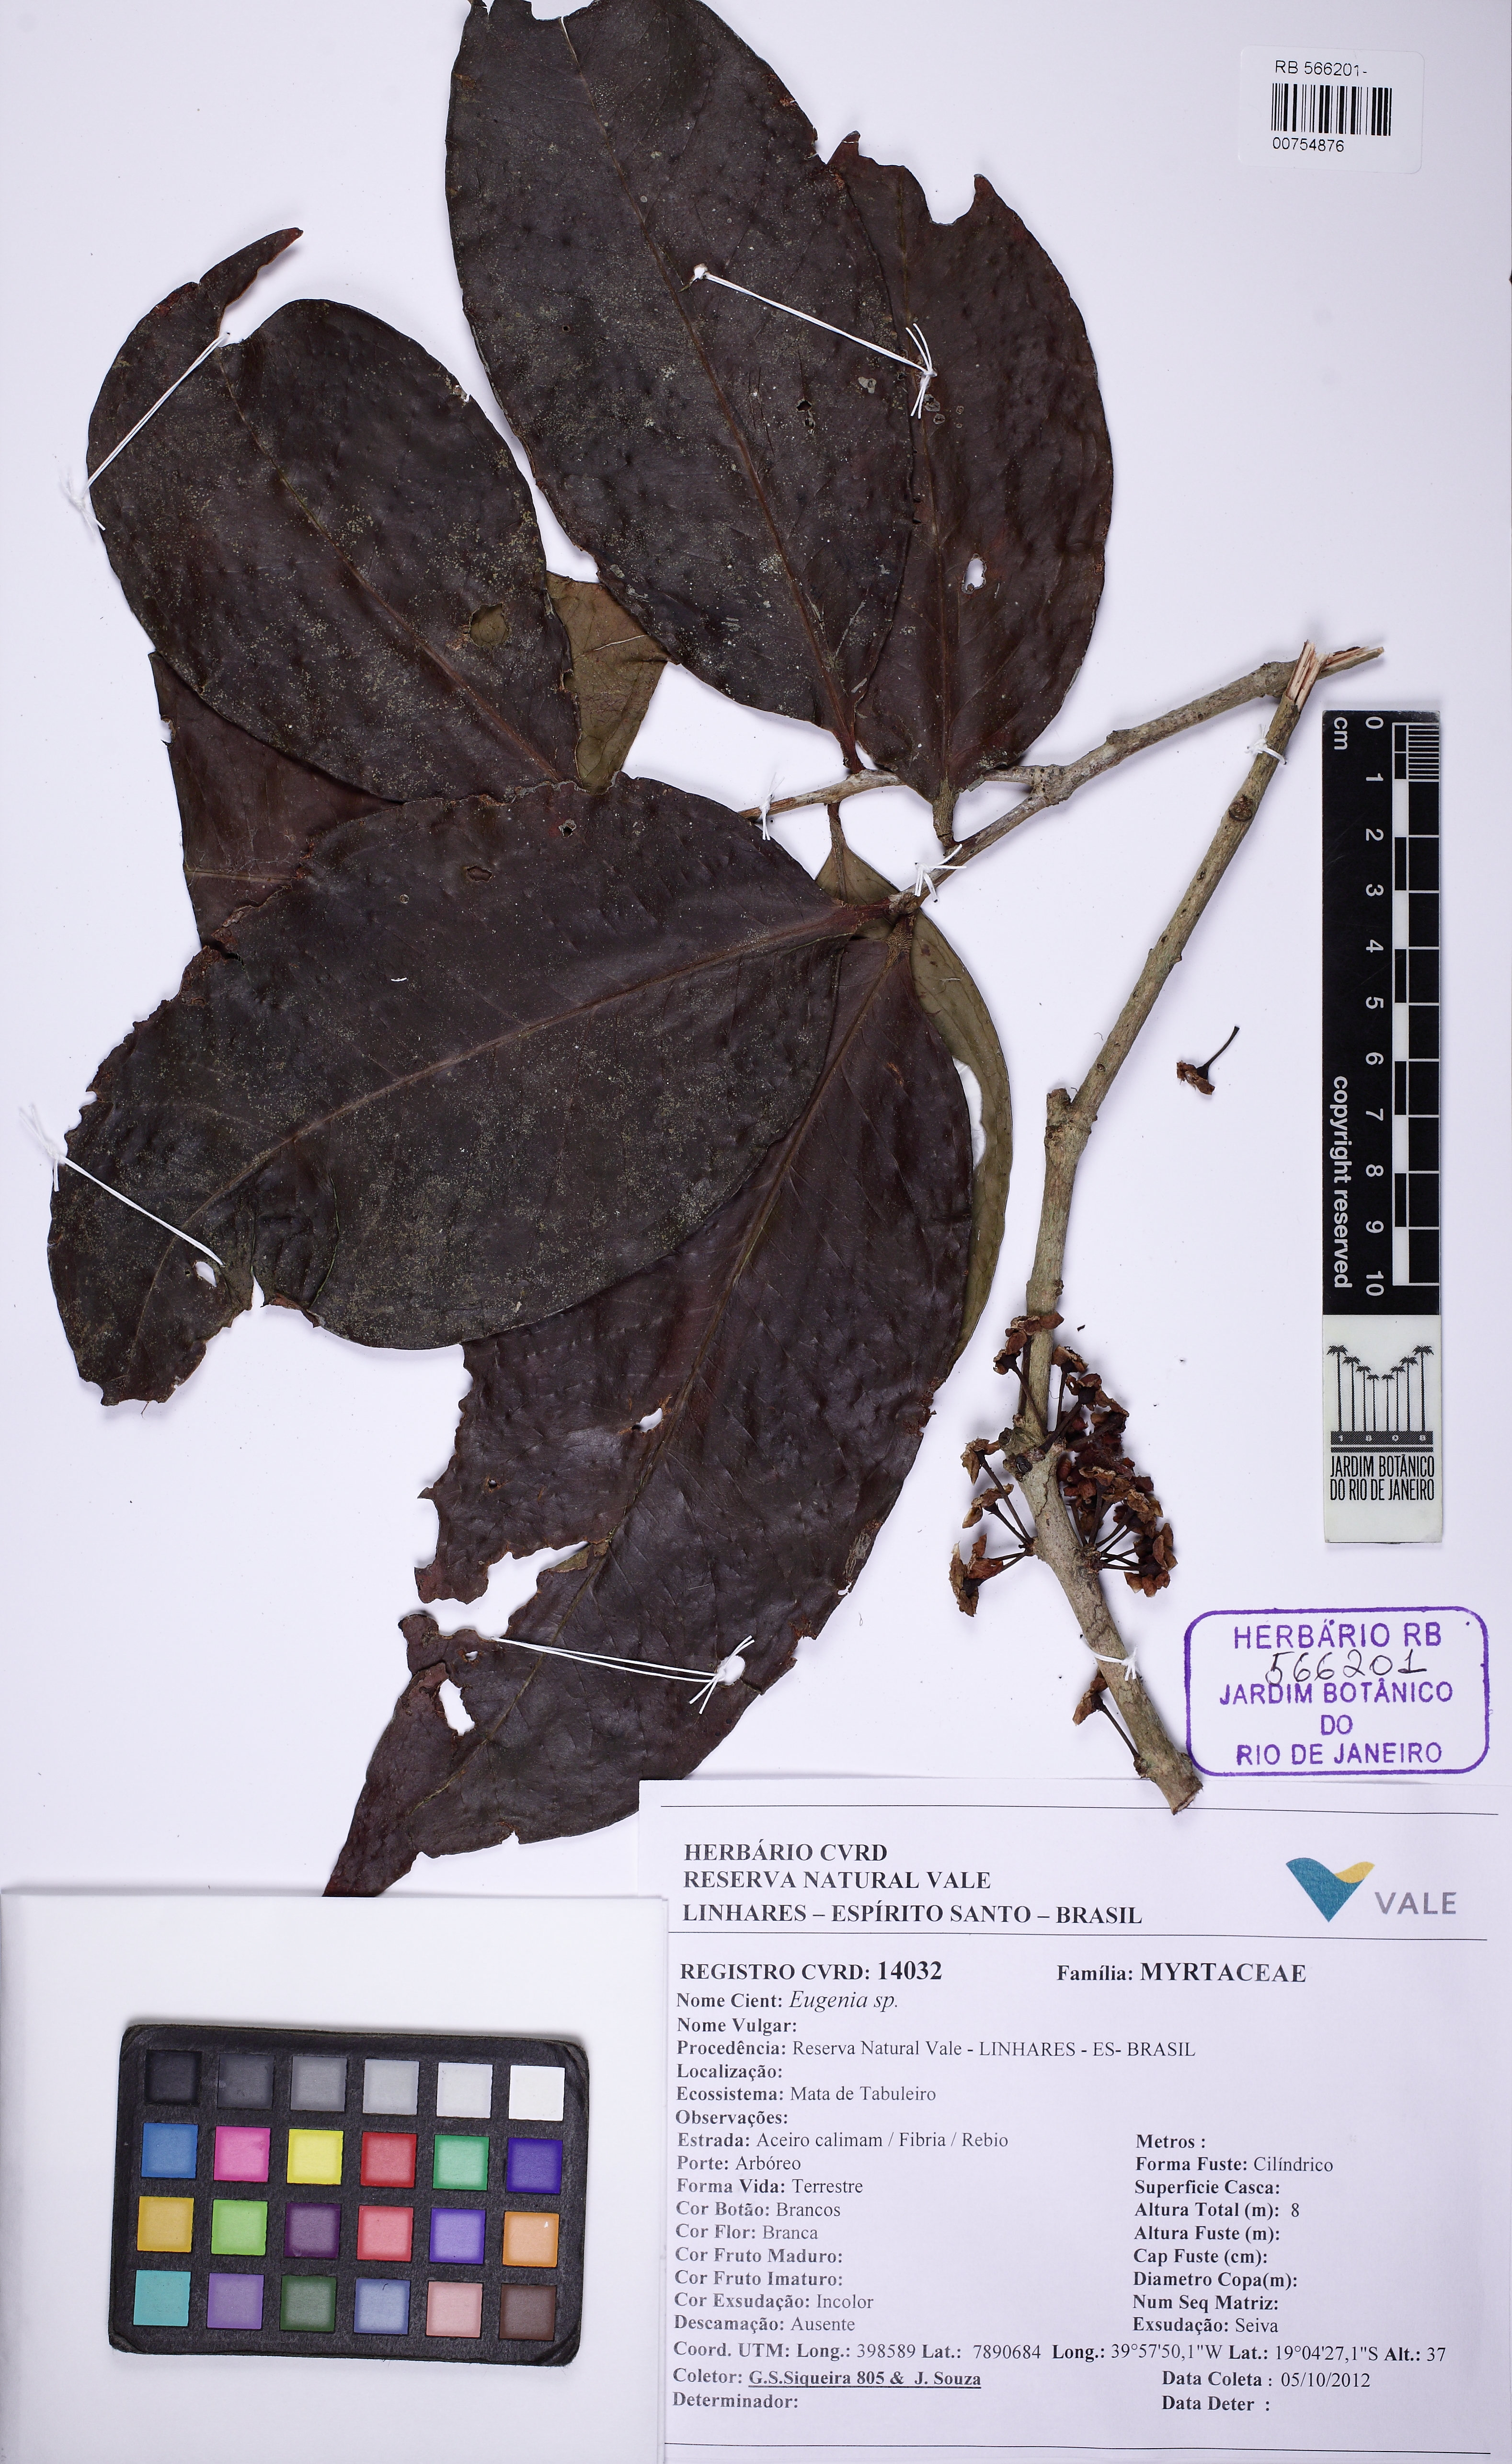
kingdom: Plantae
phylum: Tracheophyta
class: Magnoliopsida
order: Myrtales
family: Myrtaceae
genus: Eugenia
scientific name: Eugenia fusca
